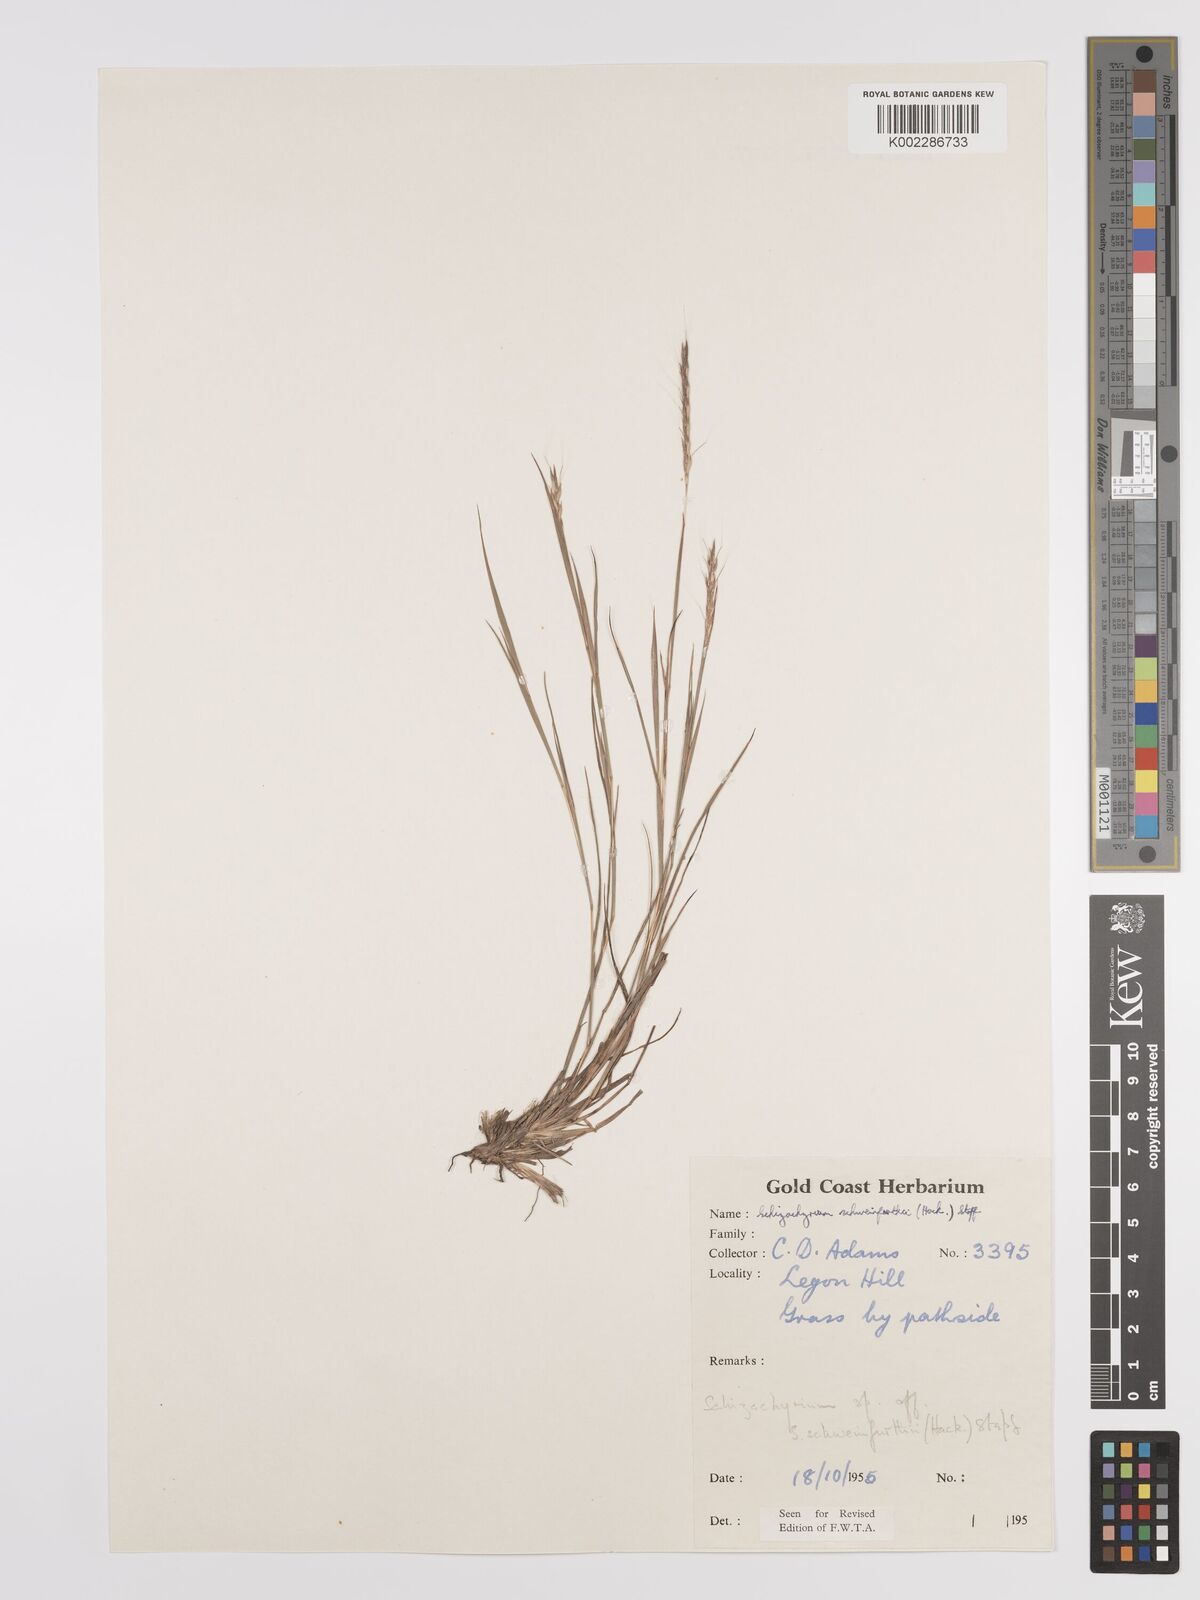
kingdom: Plantae
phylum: Tracheophyta
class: Liliopsida
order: Poales
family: Poaceae
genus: Andropogon
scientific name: Andropogon schweinfurthii
